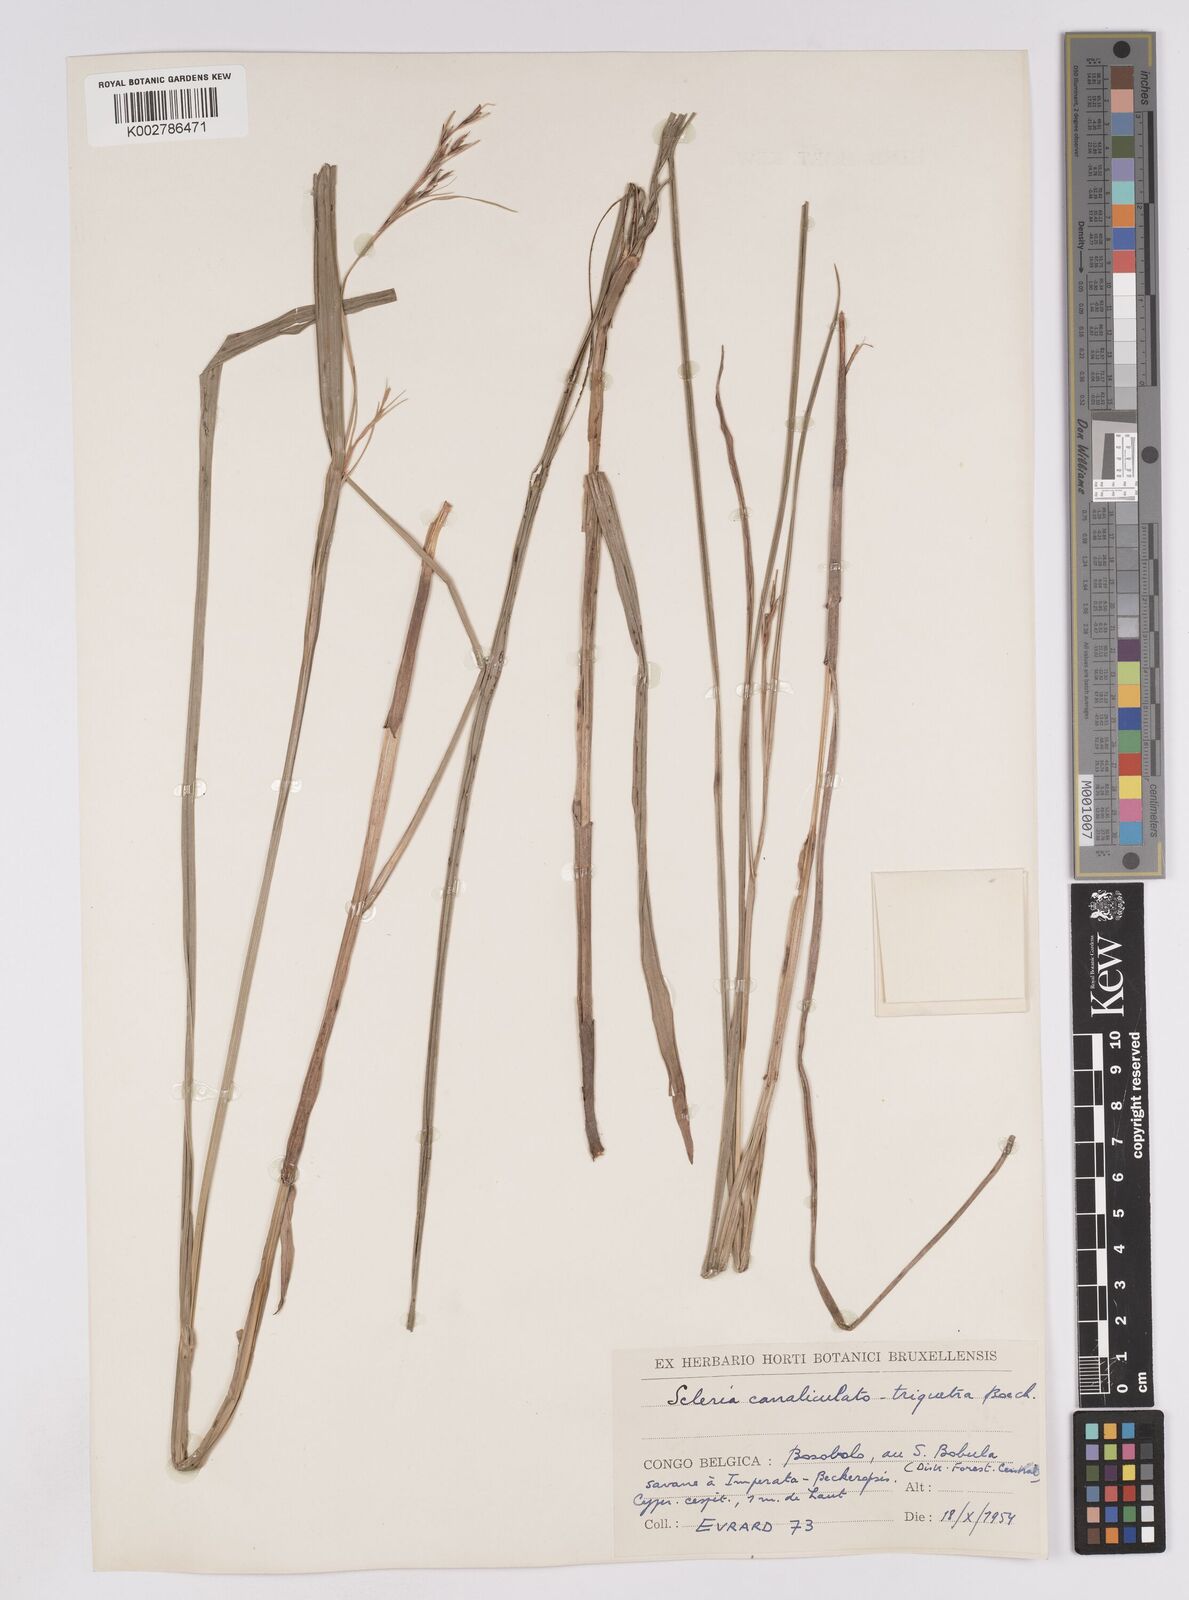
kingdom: Plantae
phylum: Tracheophyta
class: Liliopsida
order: Poales
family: Cyperaceae
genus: Scleria
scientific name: Scleria lagoensis
